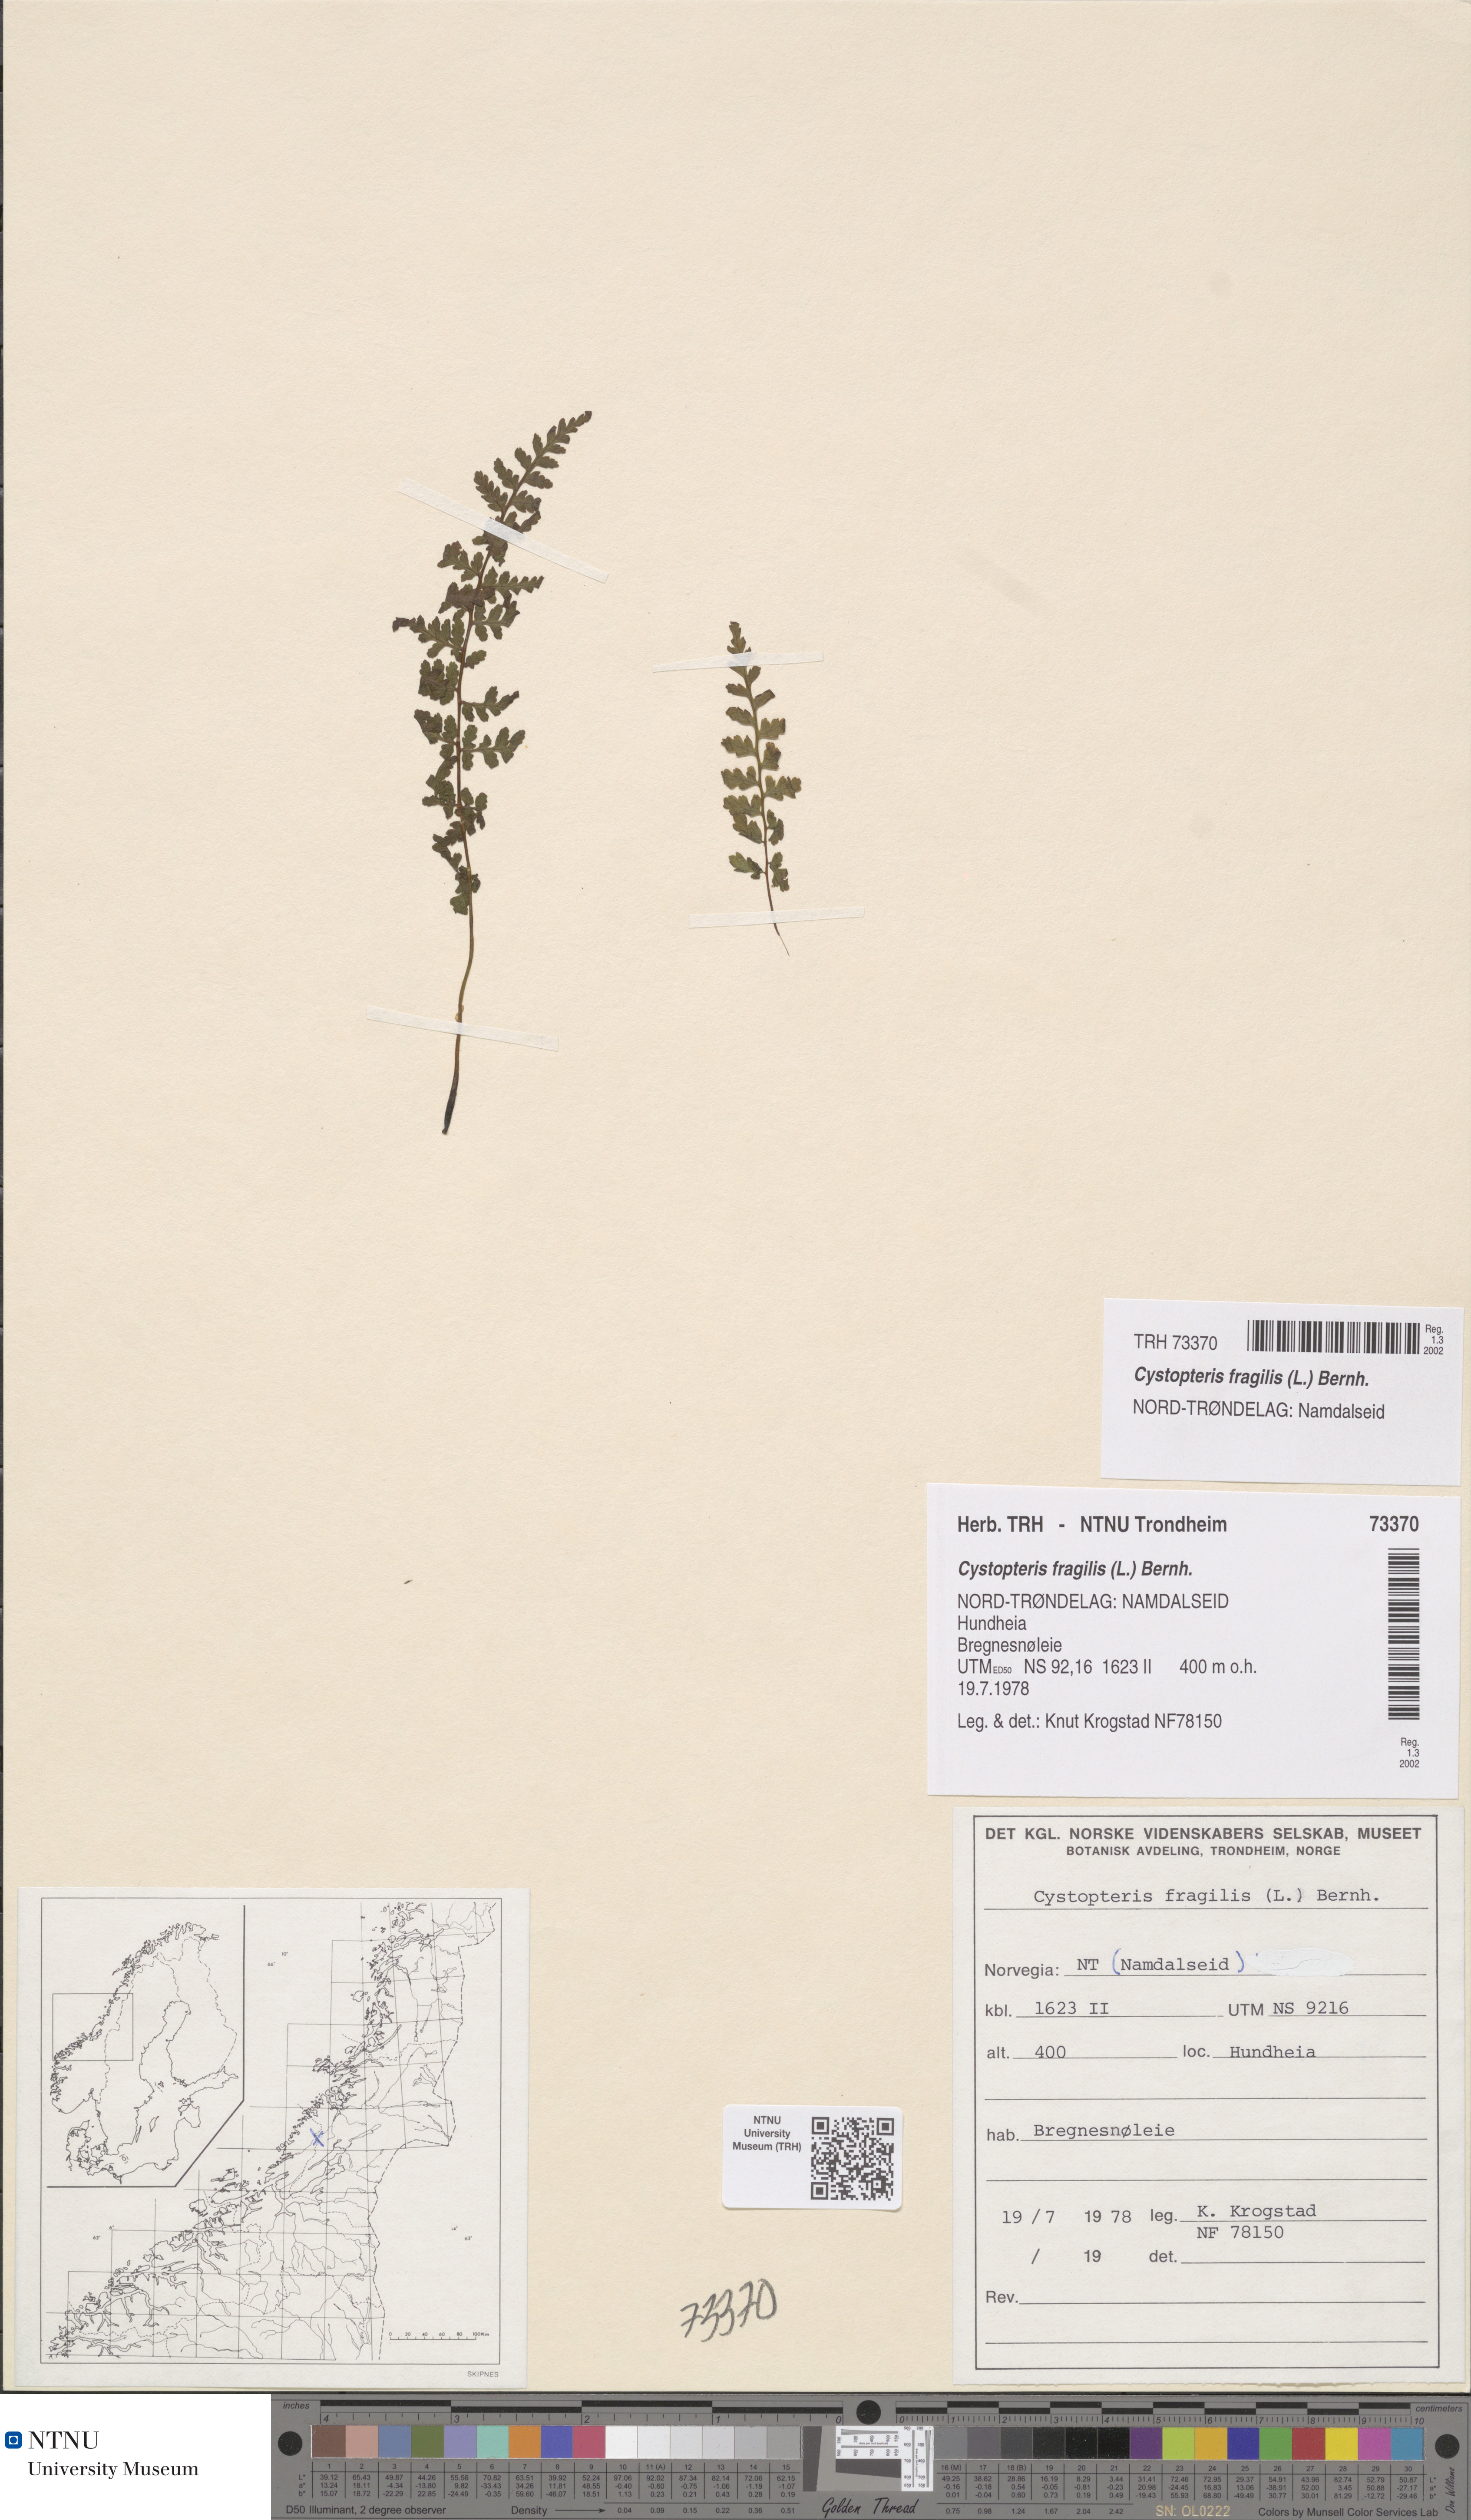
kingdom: Plantae
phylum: Tracheophyta
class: Polypodiopsida
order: Polypodiales
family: Cystopteridaceae
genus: Cystopteris
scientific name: Cystopteris fragilis
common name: Brittle bladder fern
